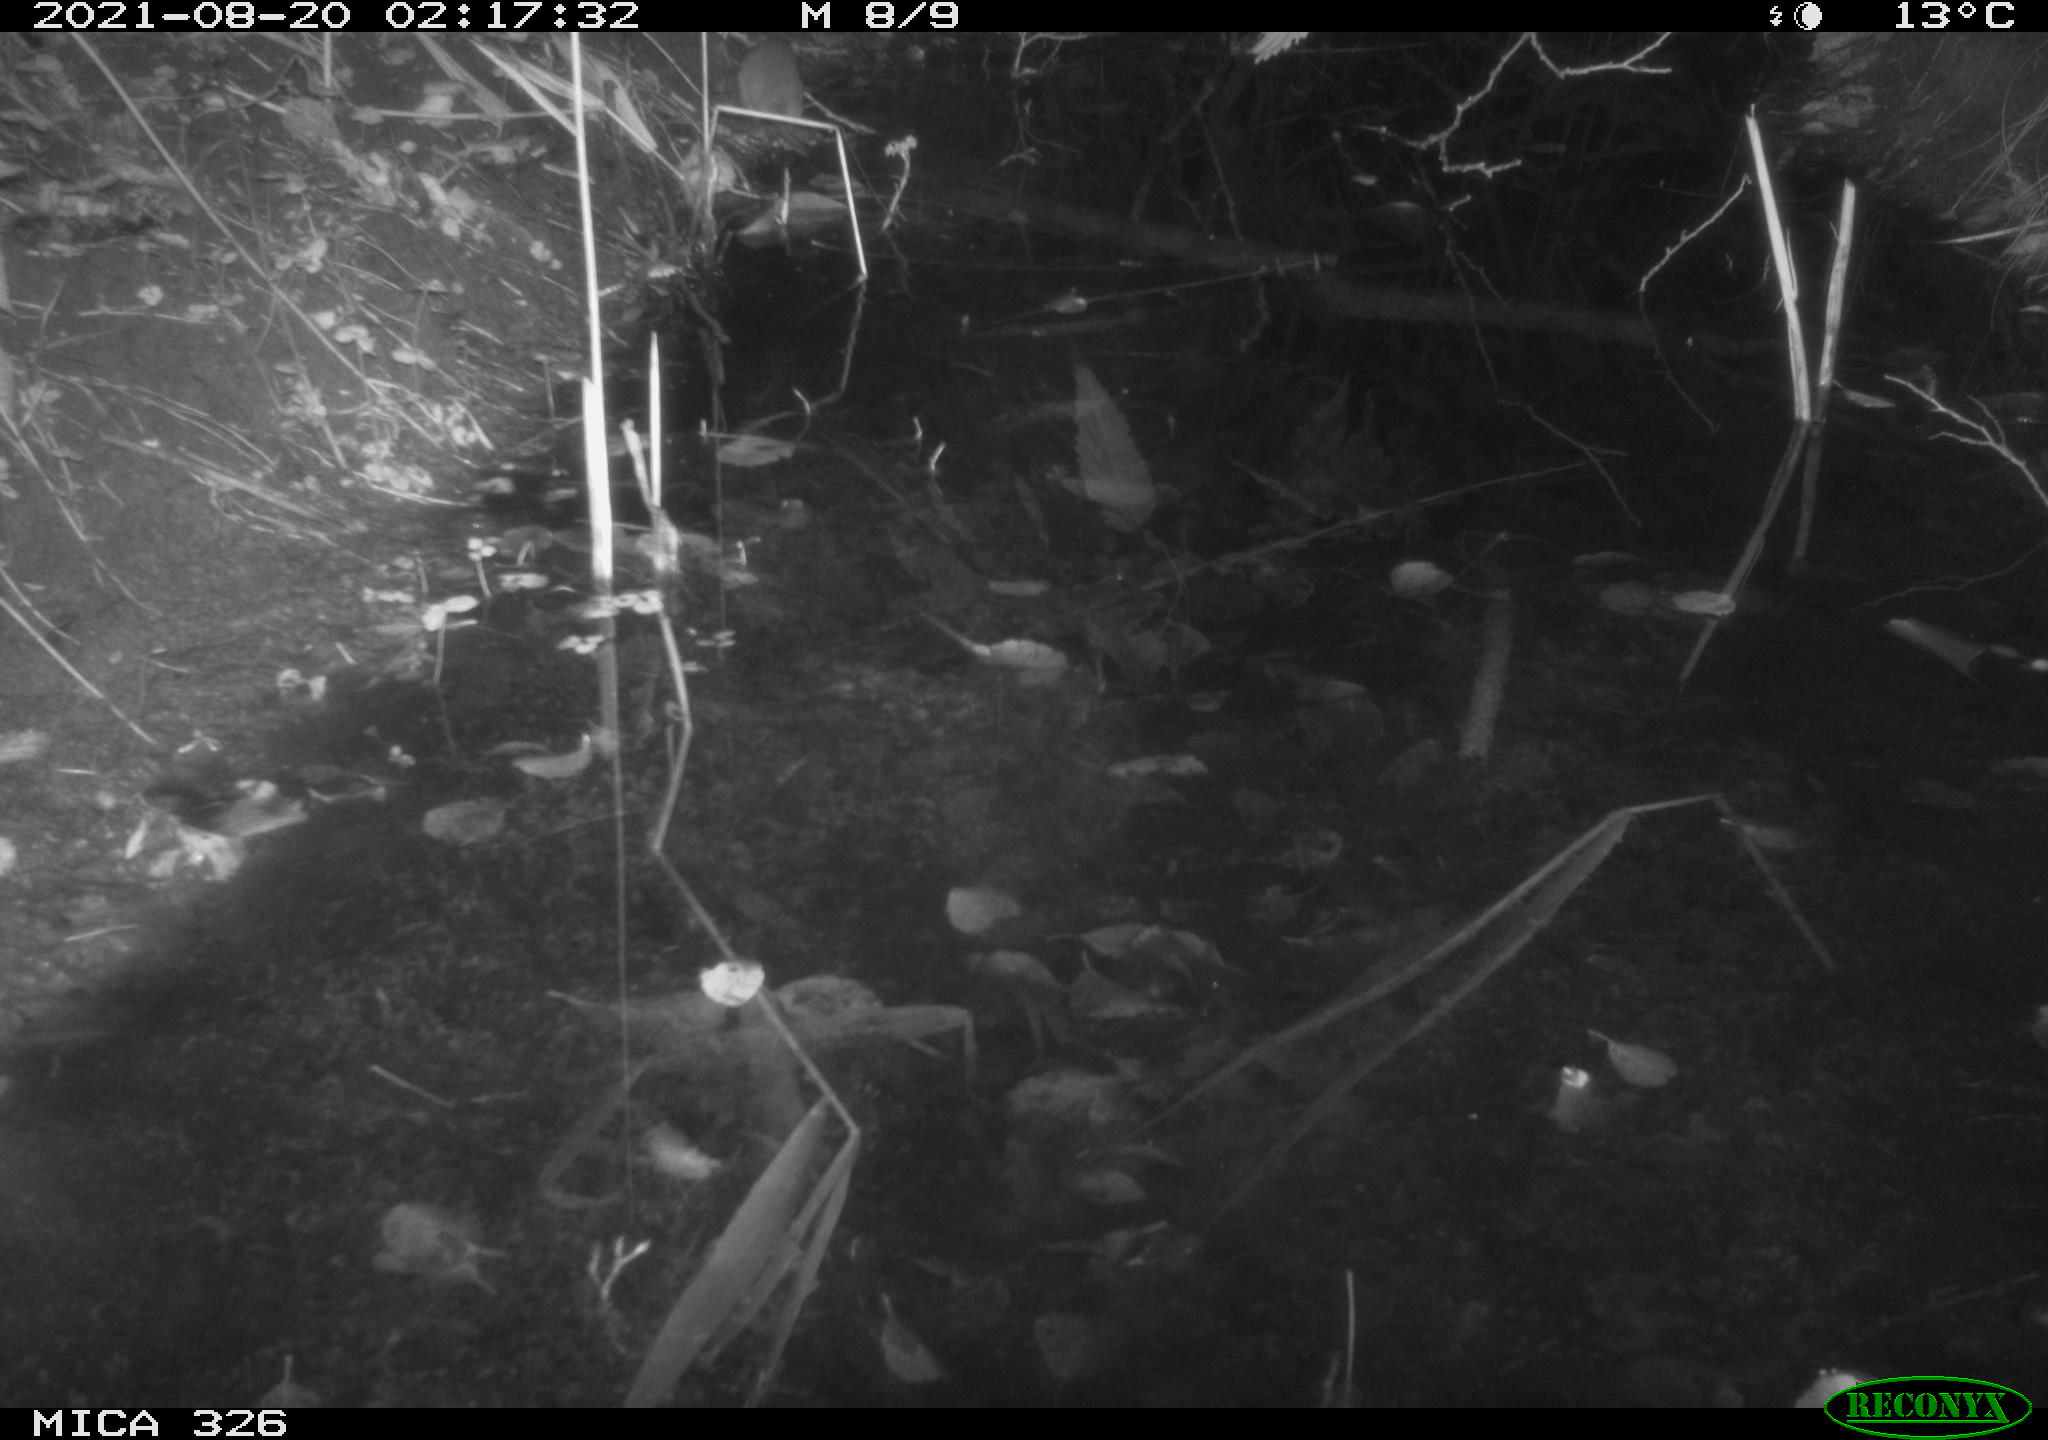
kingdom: Animalia
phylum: Chordata
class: Mammalia
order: Rodentia
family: Muridae
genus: Rattus
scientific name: Rattus norvegicus
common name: Brown rat
